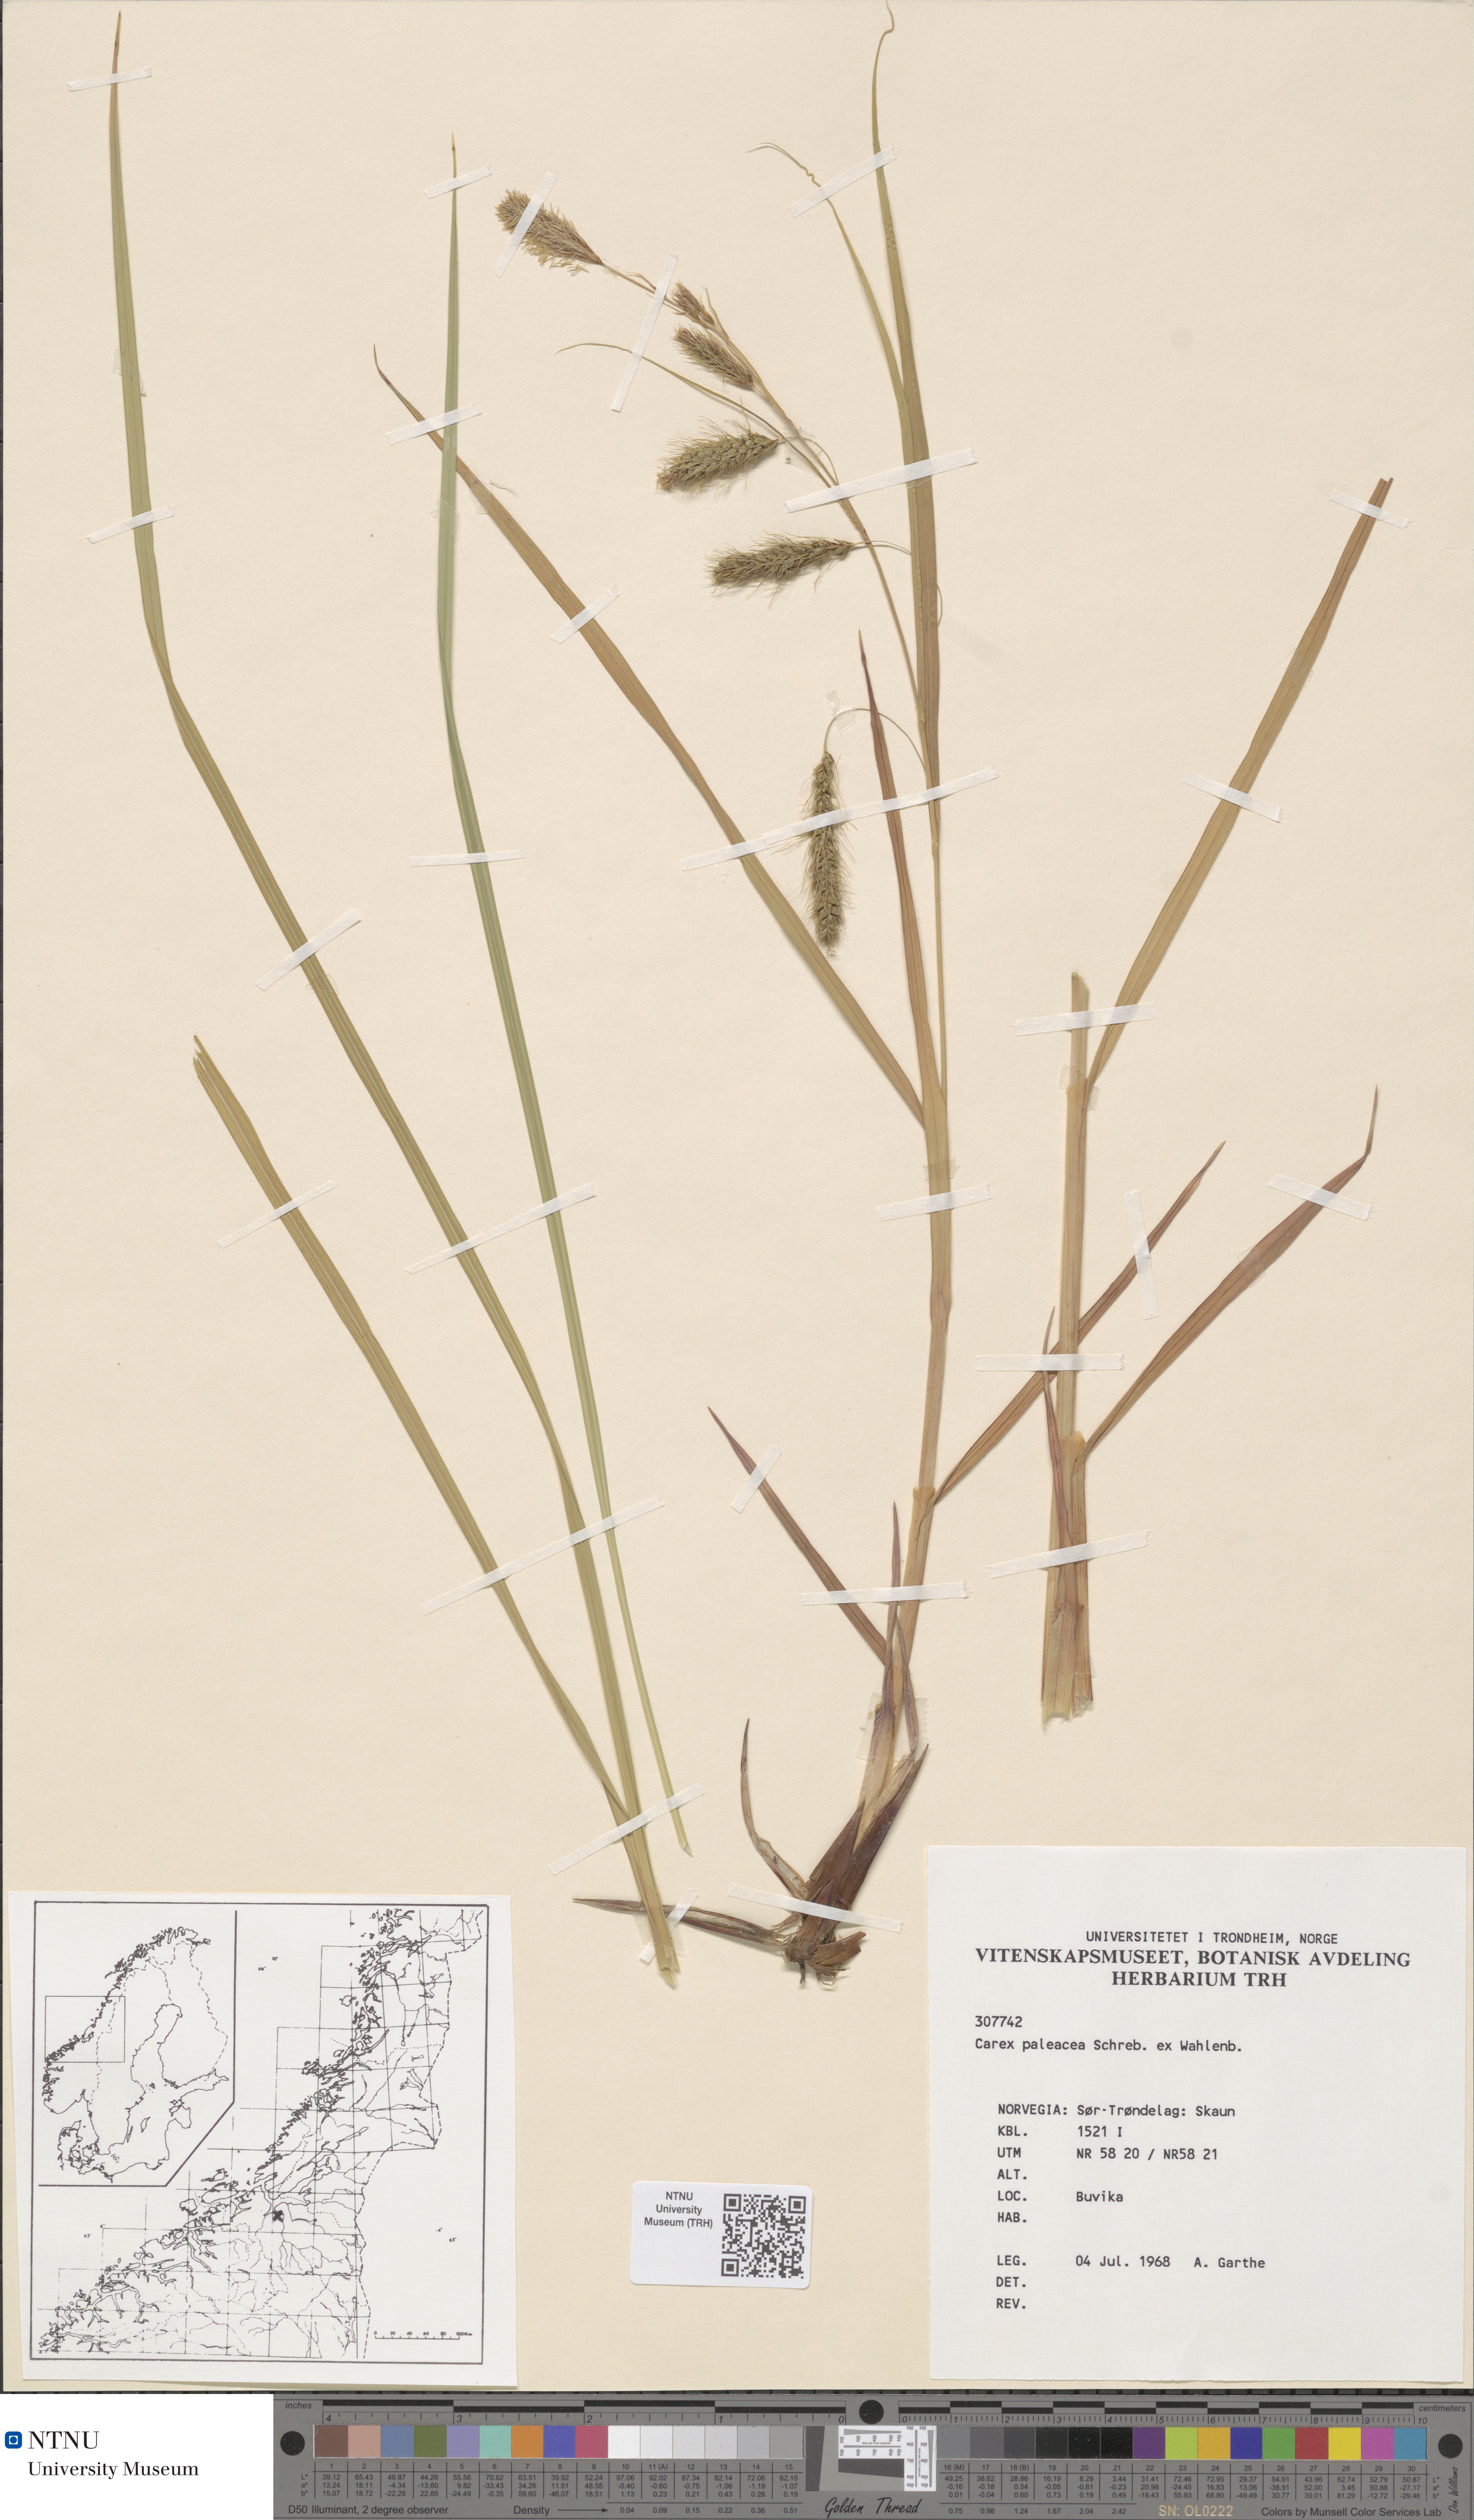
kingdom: Plantae
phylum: Tracheophyta
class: Liliopsida
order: Poales
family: Cyperaceae
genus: Carex
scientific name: Carex paleacea
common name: Chaffy sedge
